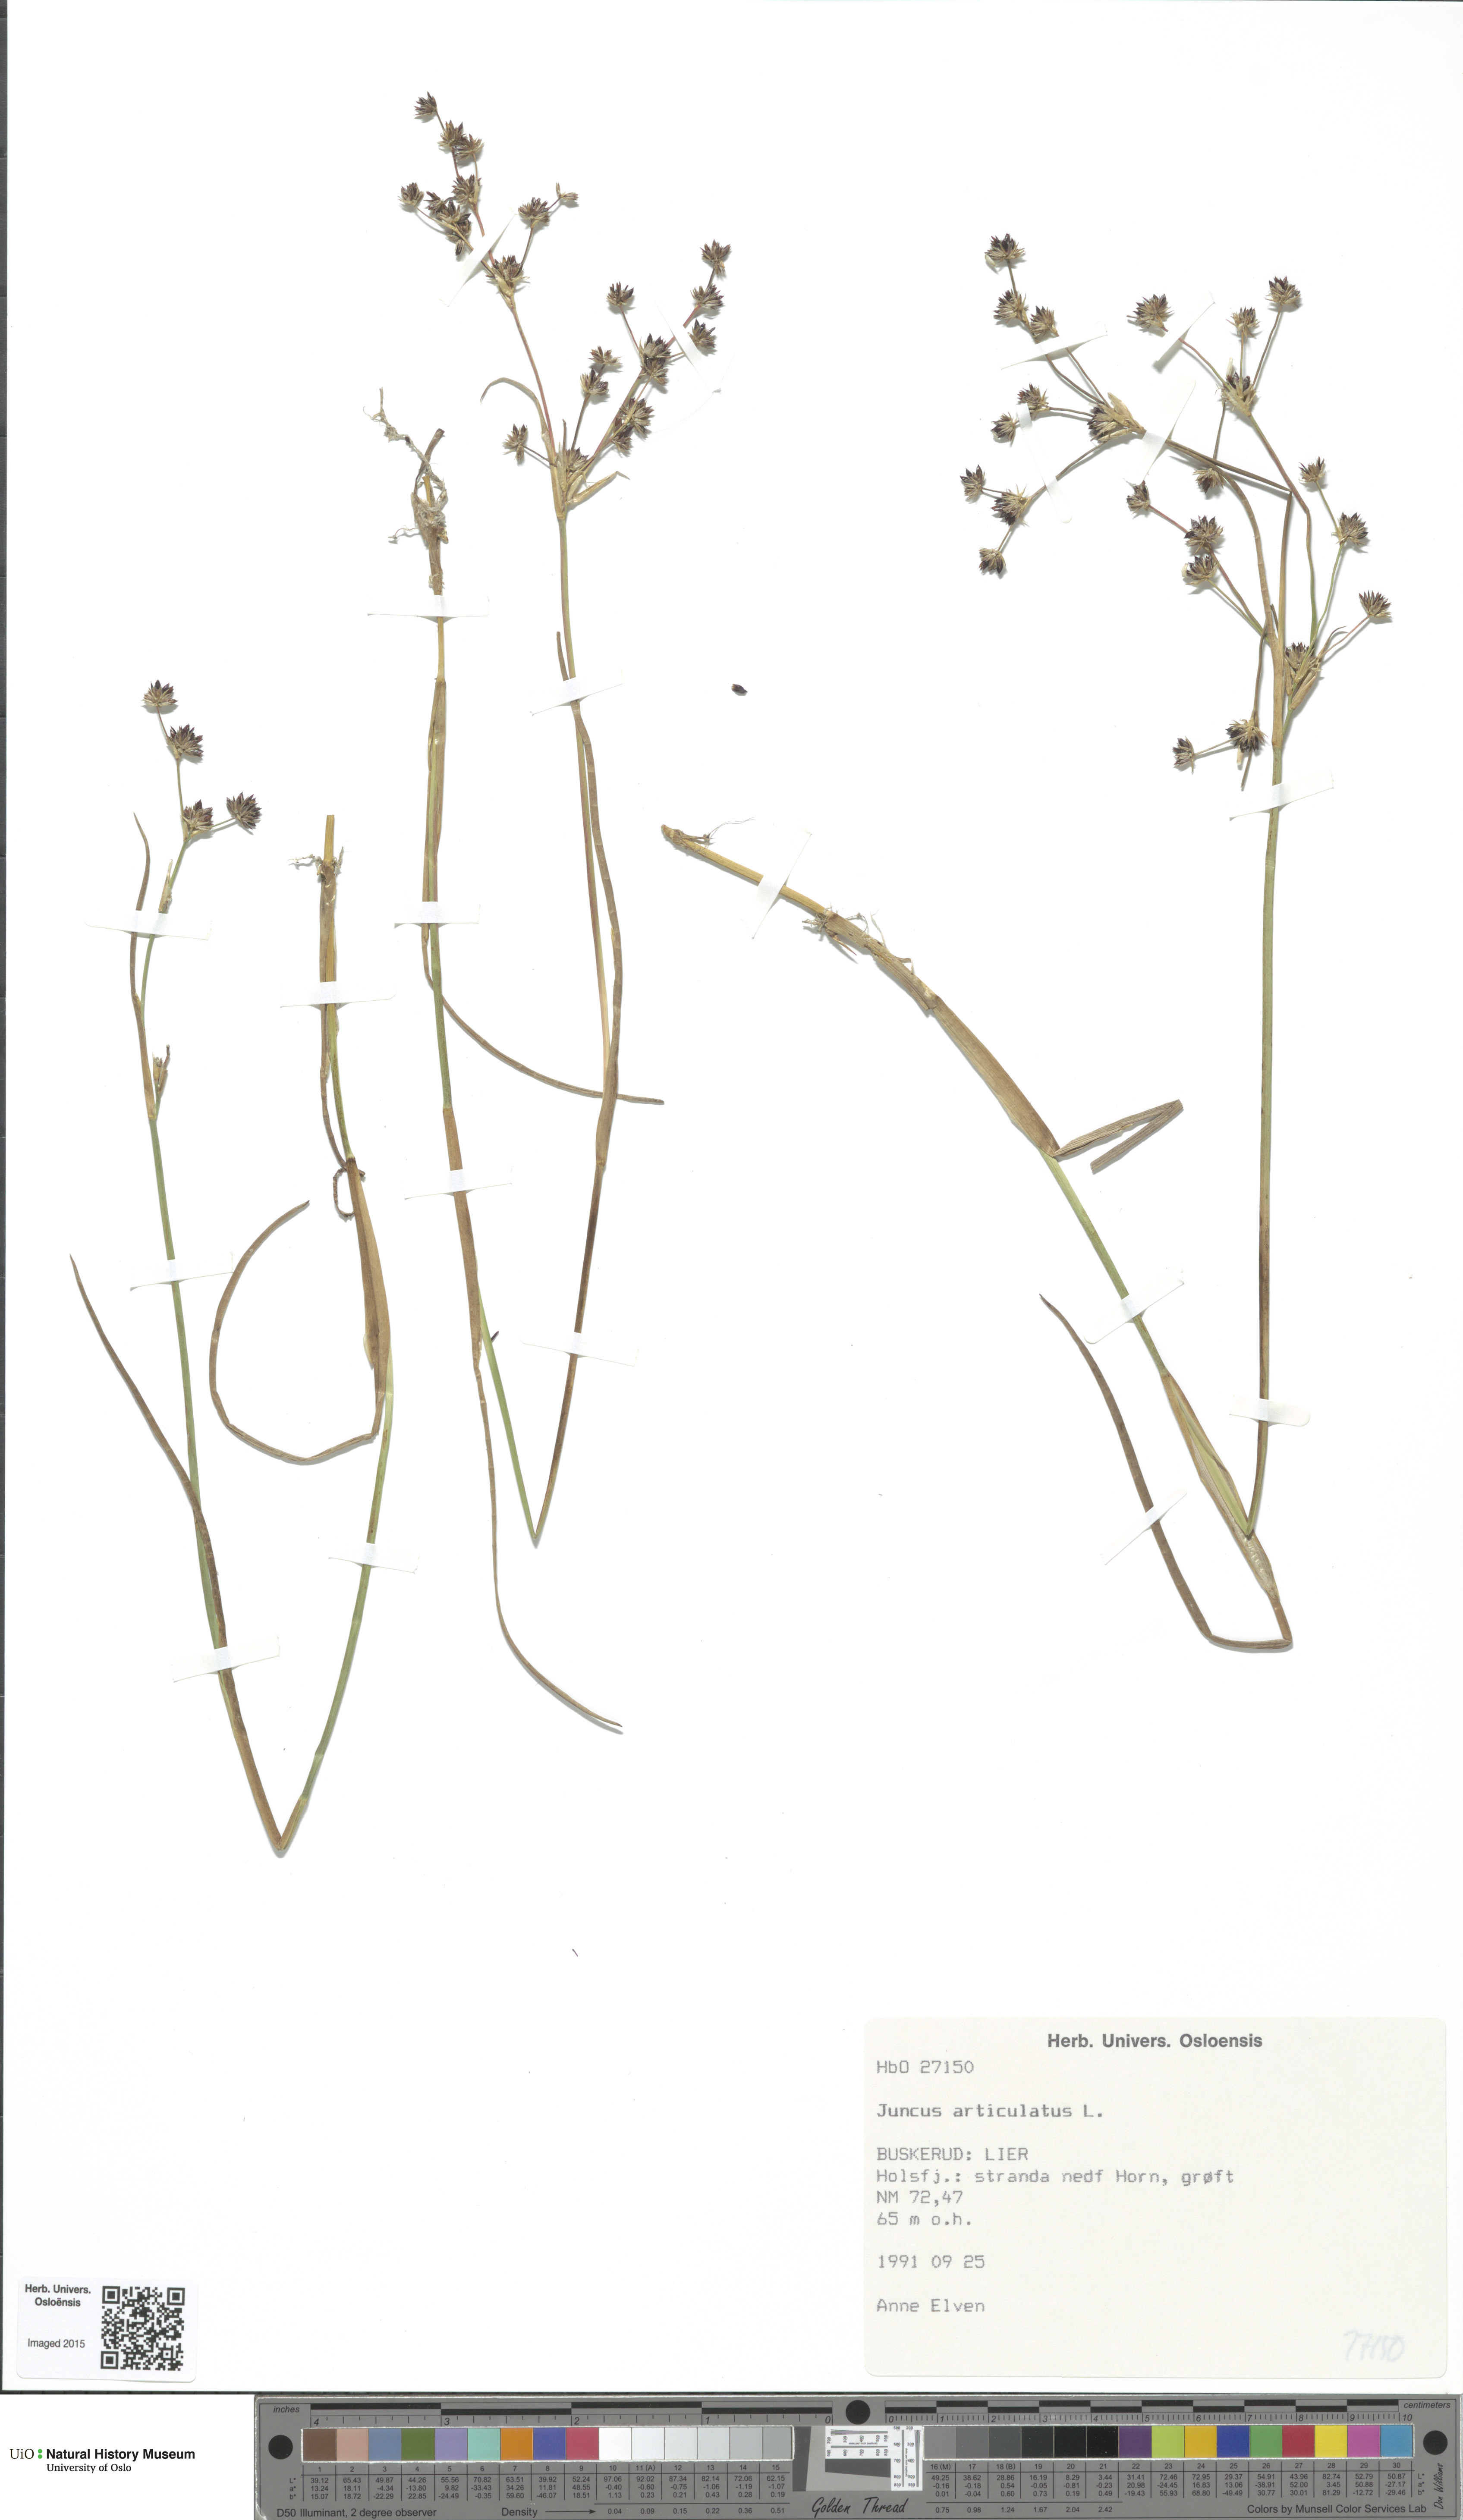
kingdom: Plantae
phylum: Tracheophyta
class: Liliopsida
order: Poales
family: Juncaceae
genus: Juncus
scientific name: Juncus articulatus
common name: Jointed rush
